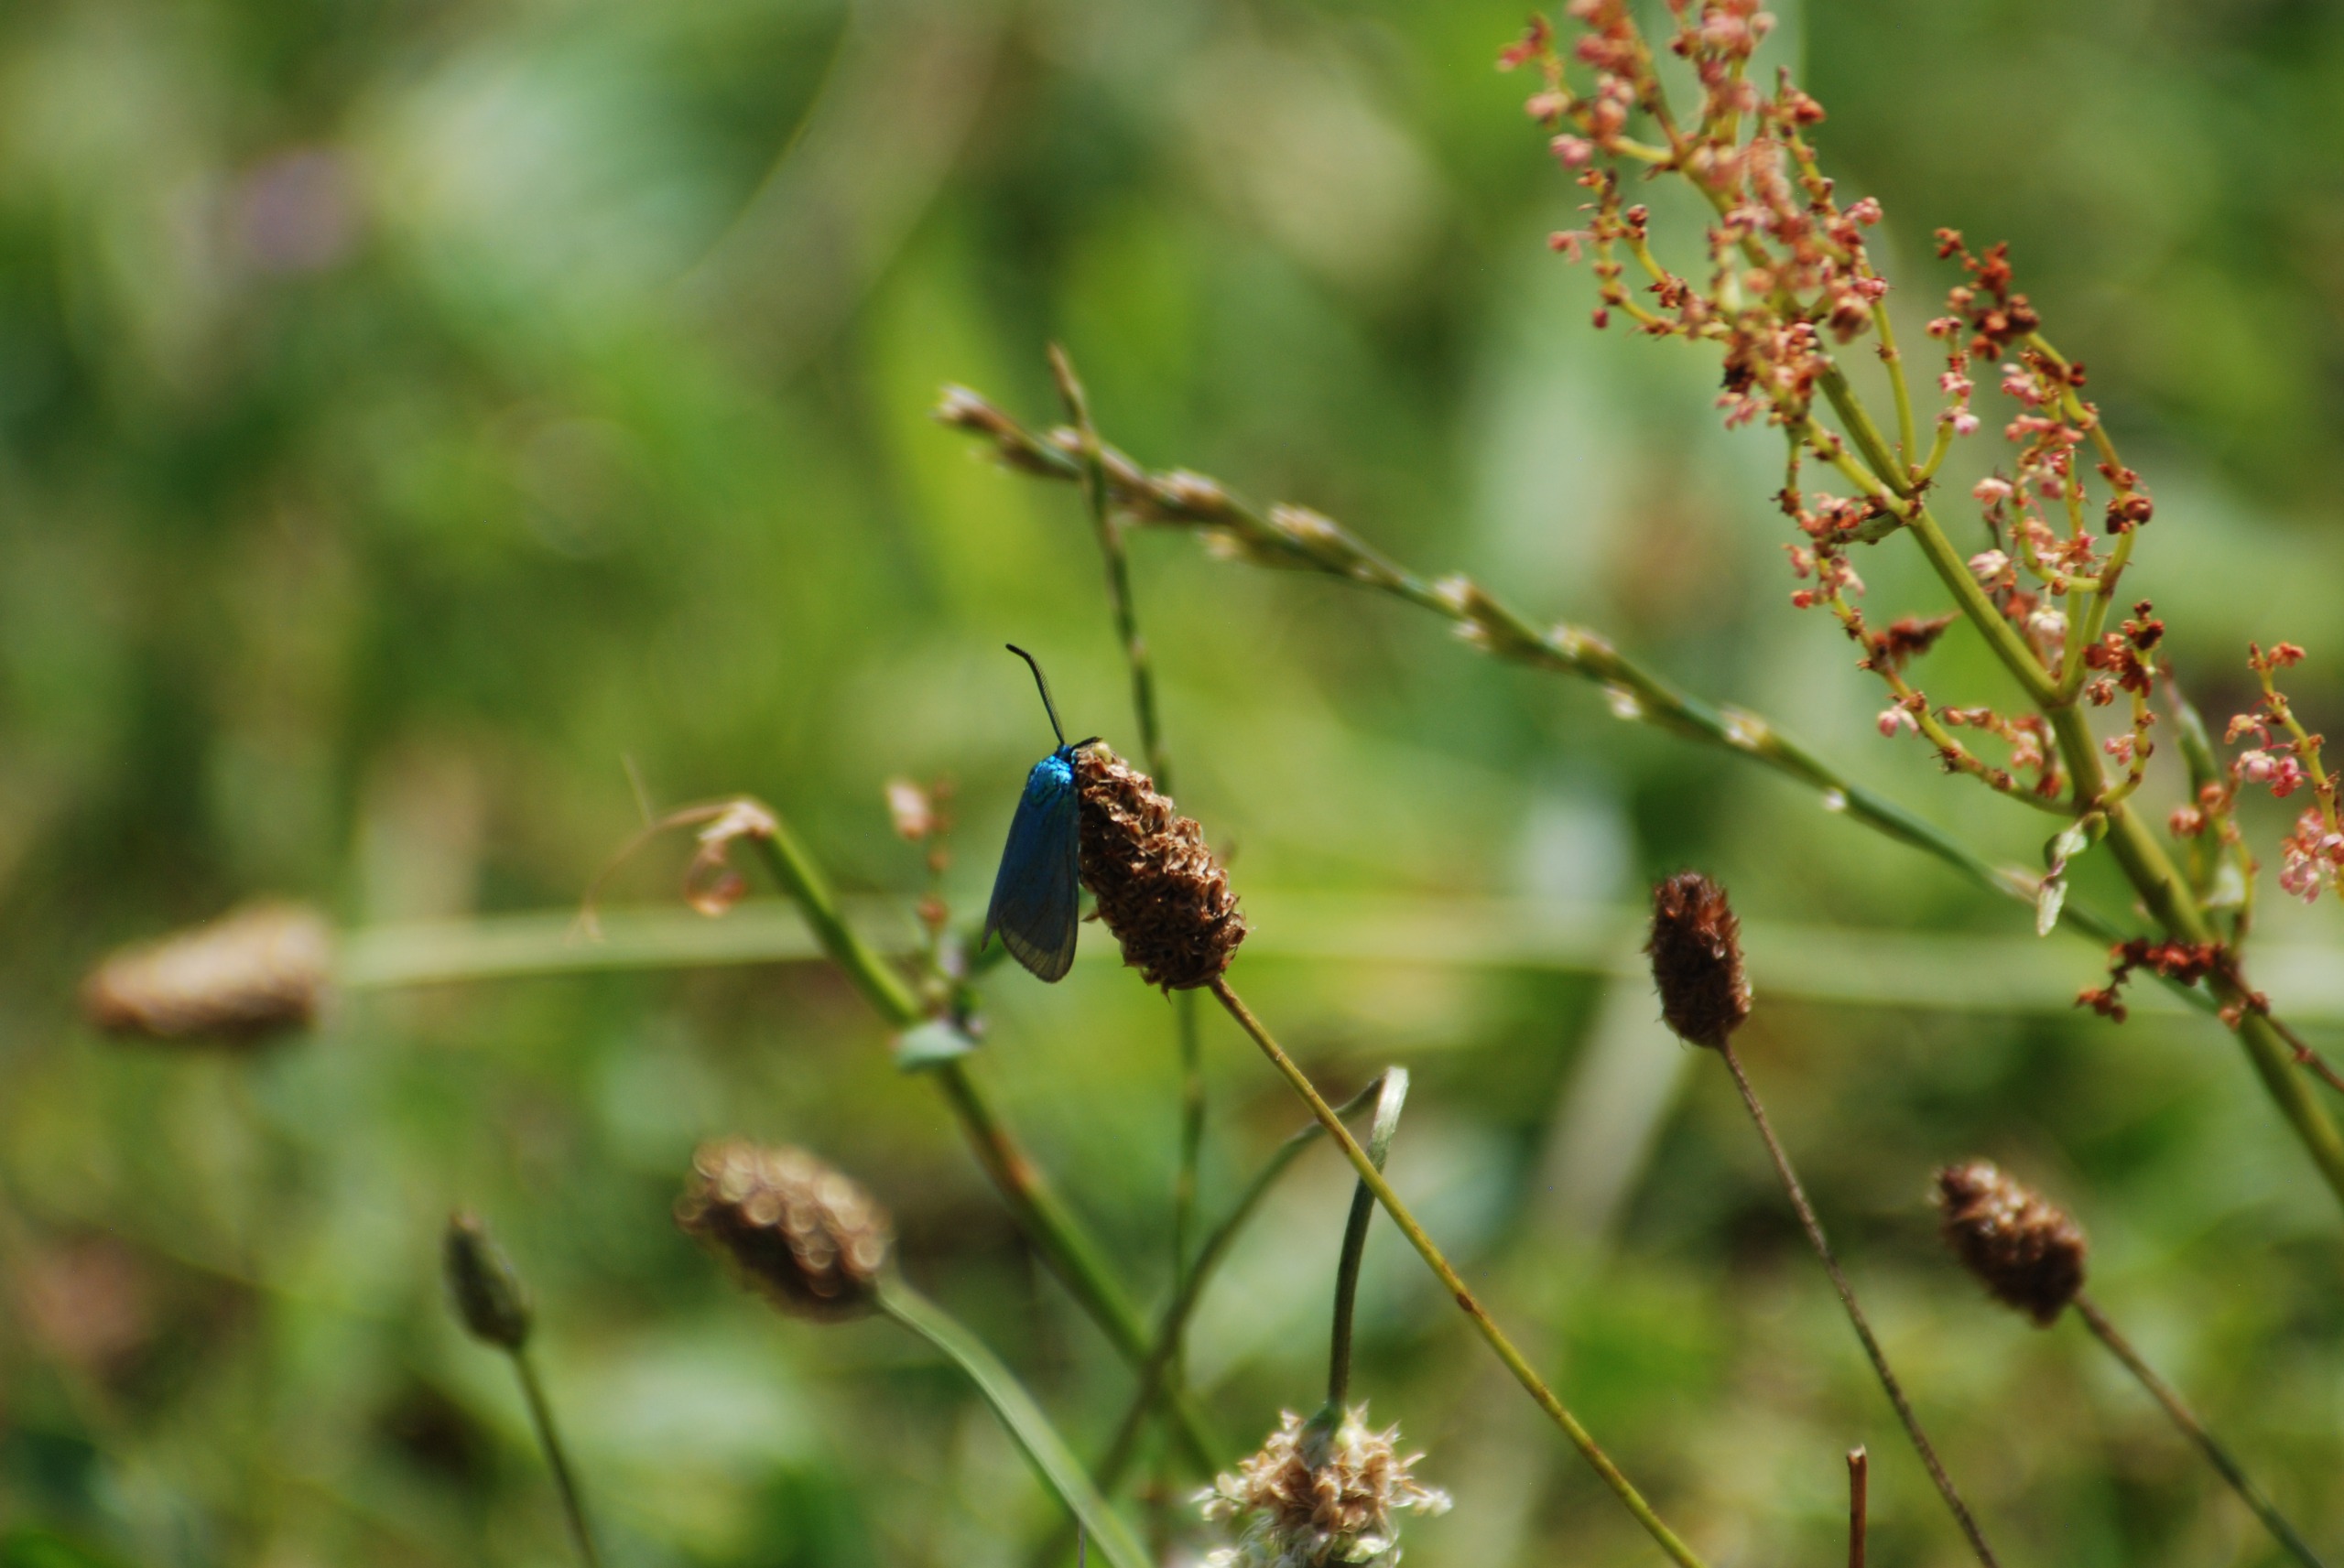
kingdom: Animalia
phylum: Arthropoda
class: Insecta
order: Lepidoptera
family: Zygaenidae
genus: Adscita
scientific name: Adscita statices
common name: Metalvinge
